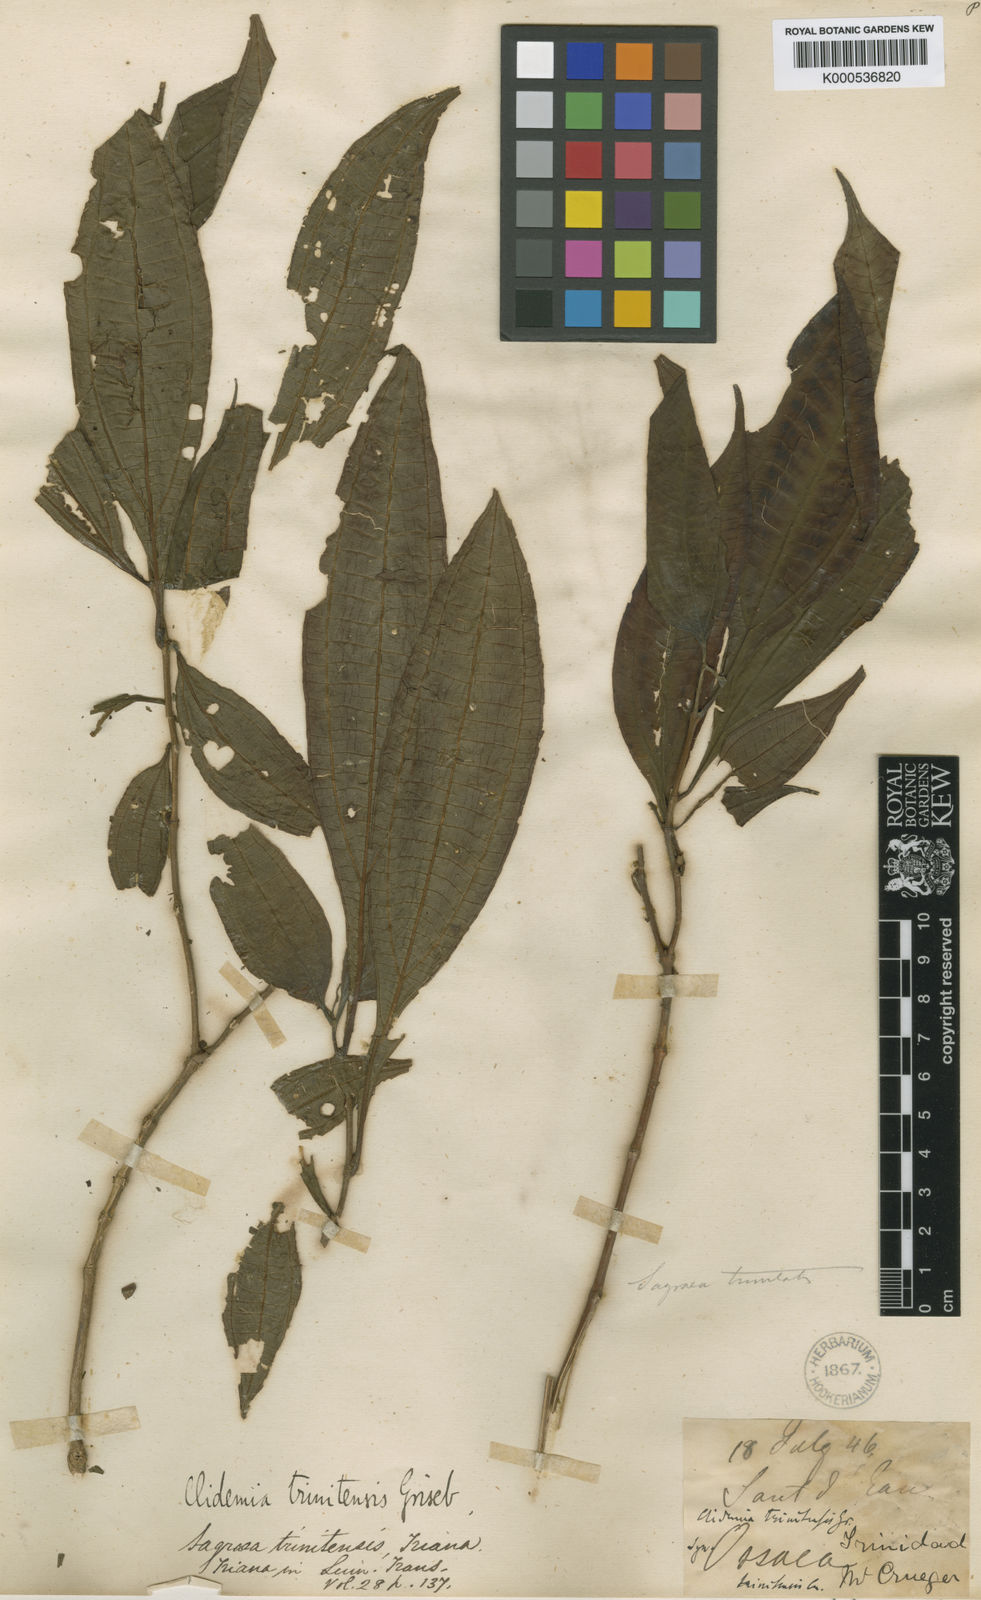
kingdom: Plantae
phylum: Tracheophyta
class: Magnoliopsida
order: Myrtales
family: Melastomataceae
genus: Miconia
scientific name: Miconia trinitensis
